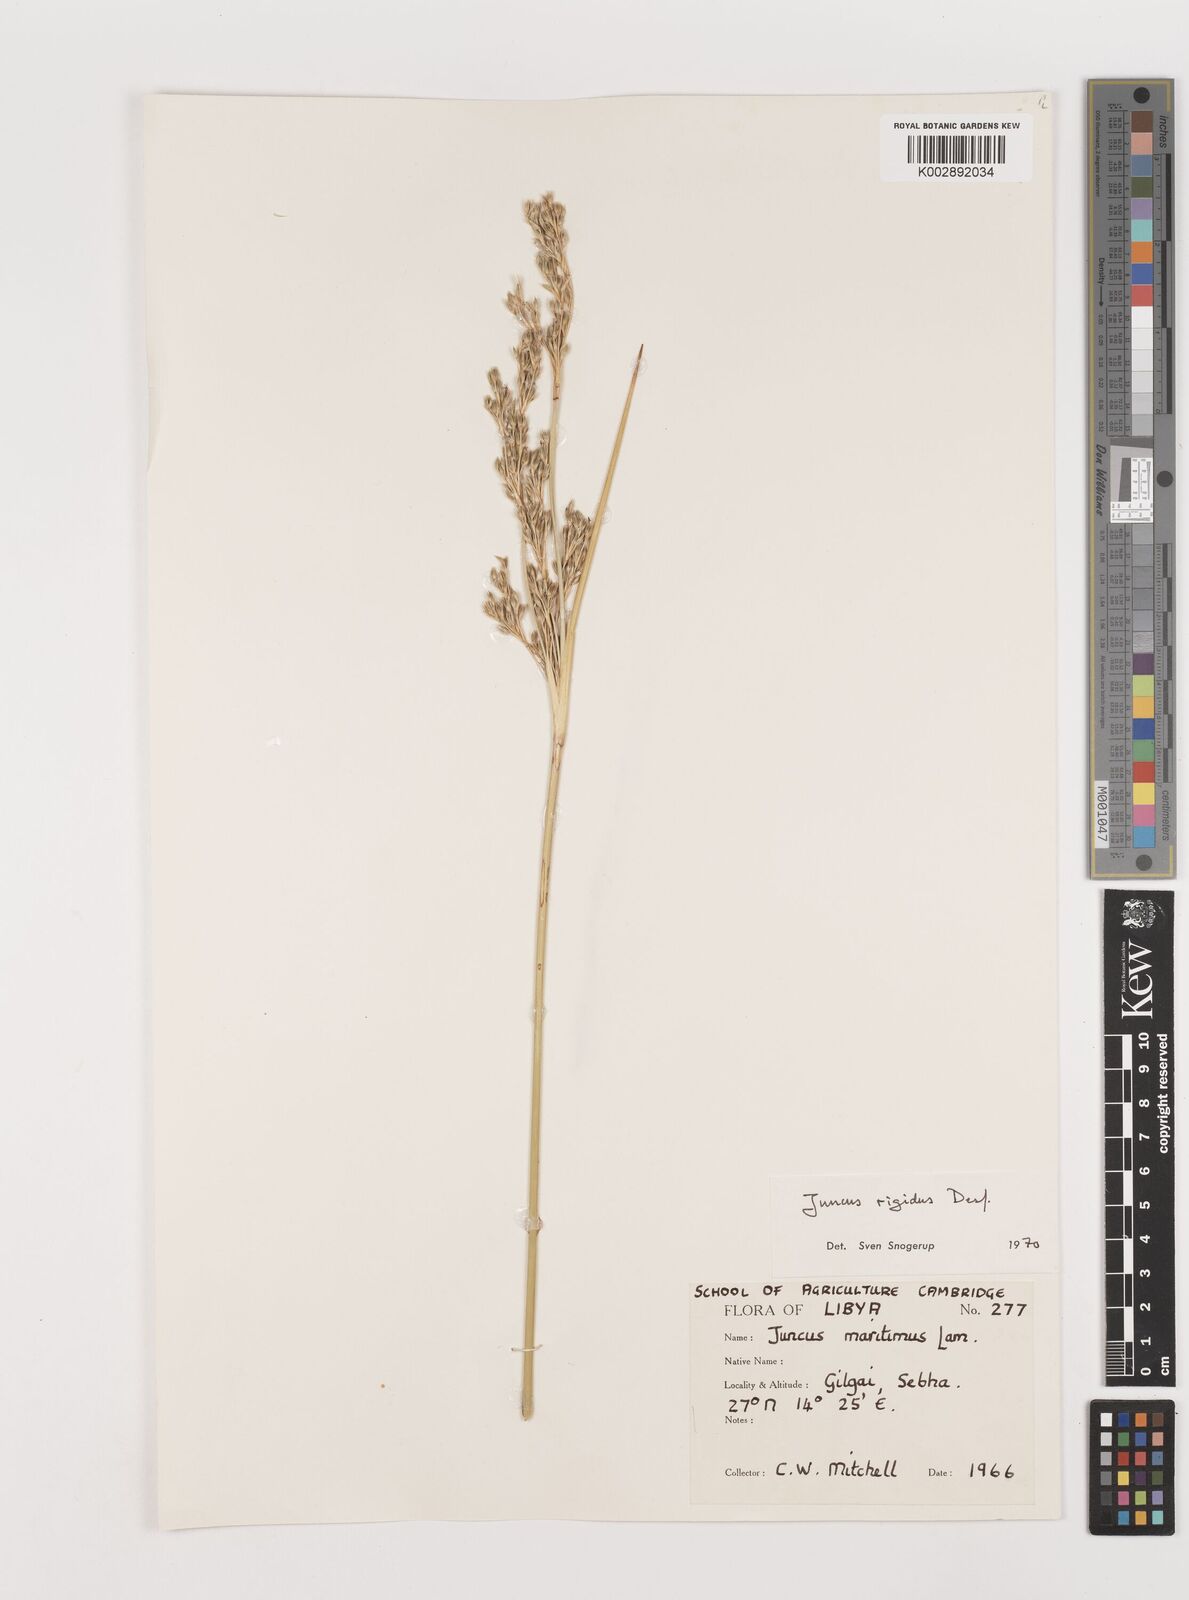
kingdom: Plantae
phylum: Tracheophyta
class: Liliopsida
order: Poales
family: Juncaceae
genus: Juncus
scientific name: Juncus rigidus
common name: Hard sea rush
